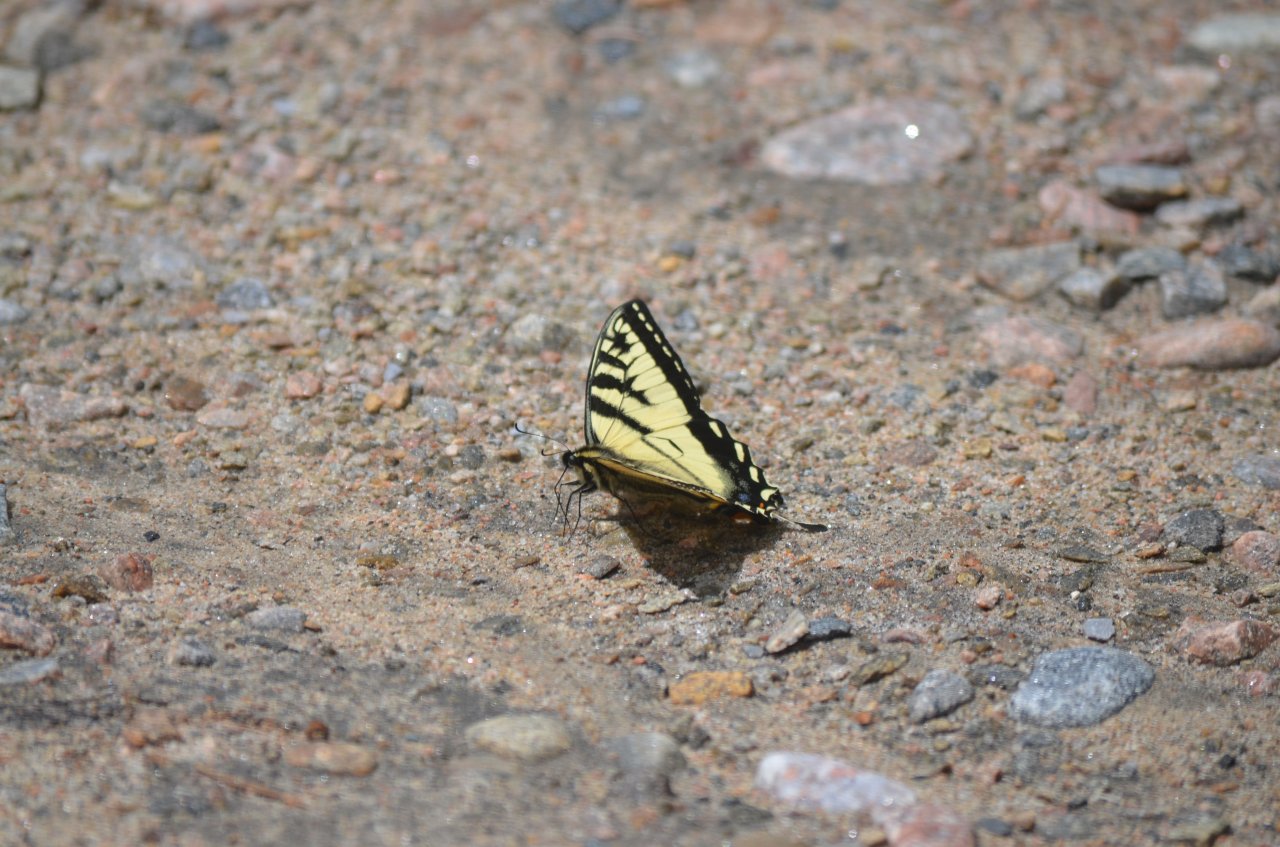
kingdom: Animalia
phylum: Arthropoda
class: Insecta
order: Lepidoptera
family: Papilionidae
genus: Pterourus
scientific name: Pterourus canadensis
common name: Canadian Tiger Swallowtail
